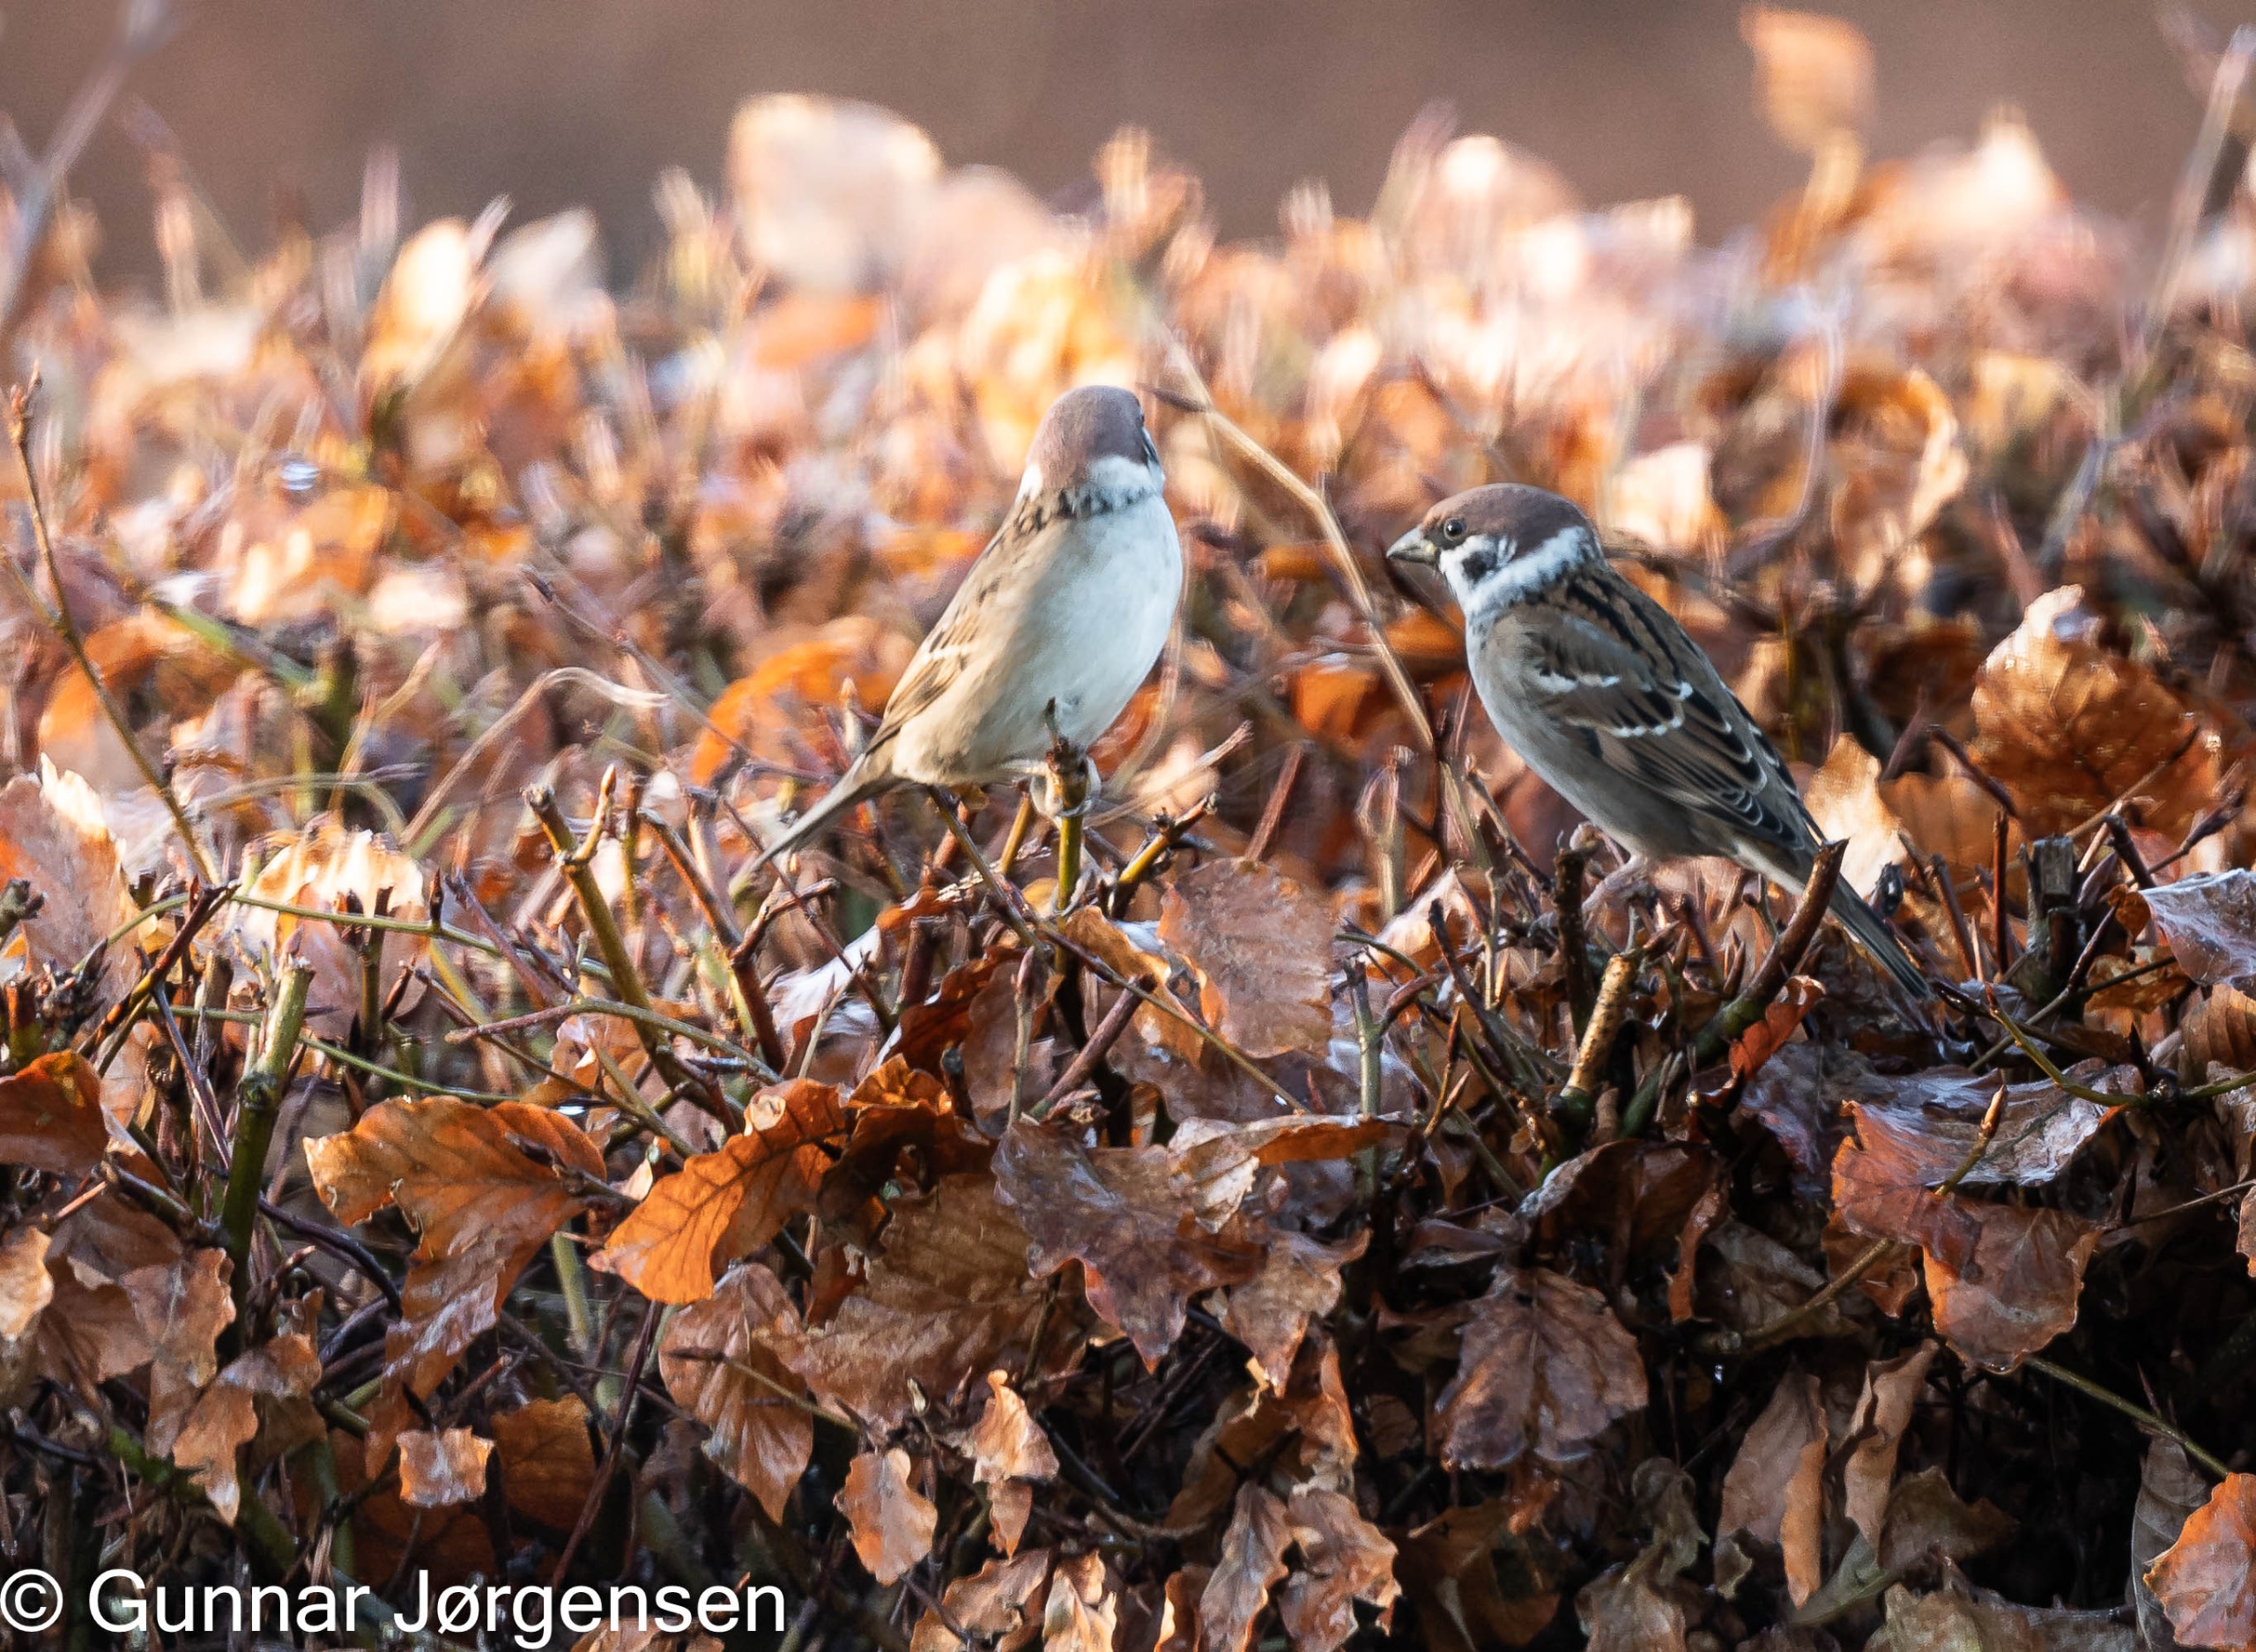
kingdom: Animalia
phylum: Chordata
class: Aves
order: Passeriformes
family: Passeridae
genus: Passer
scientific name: Passer montanus
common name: Skovspurv
